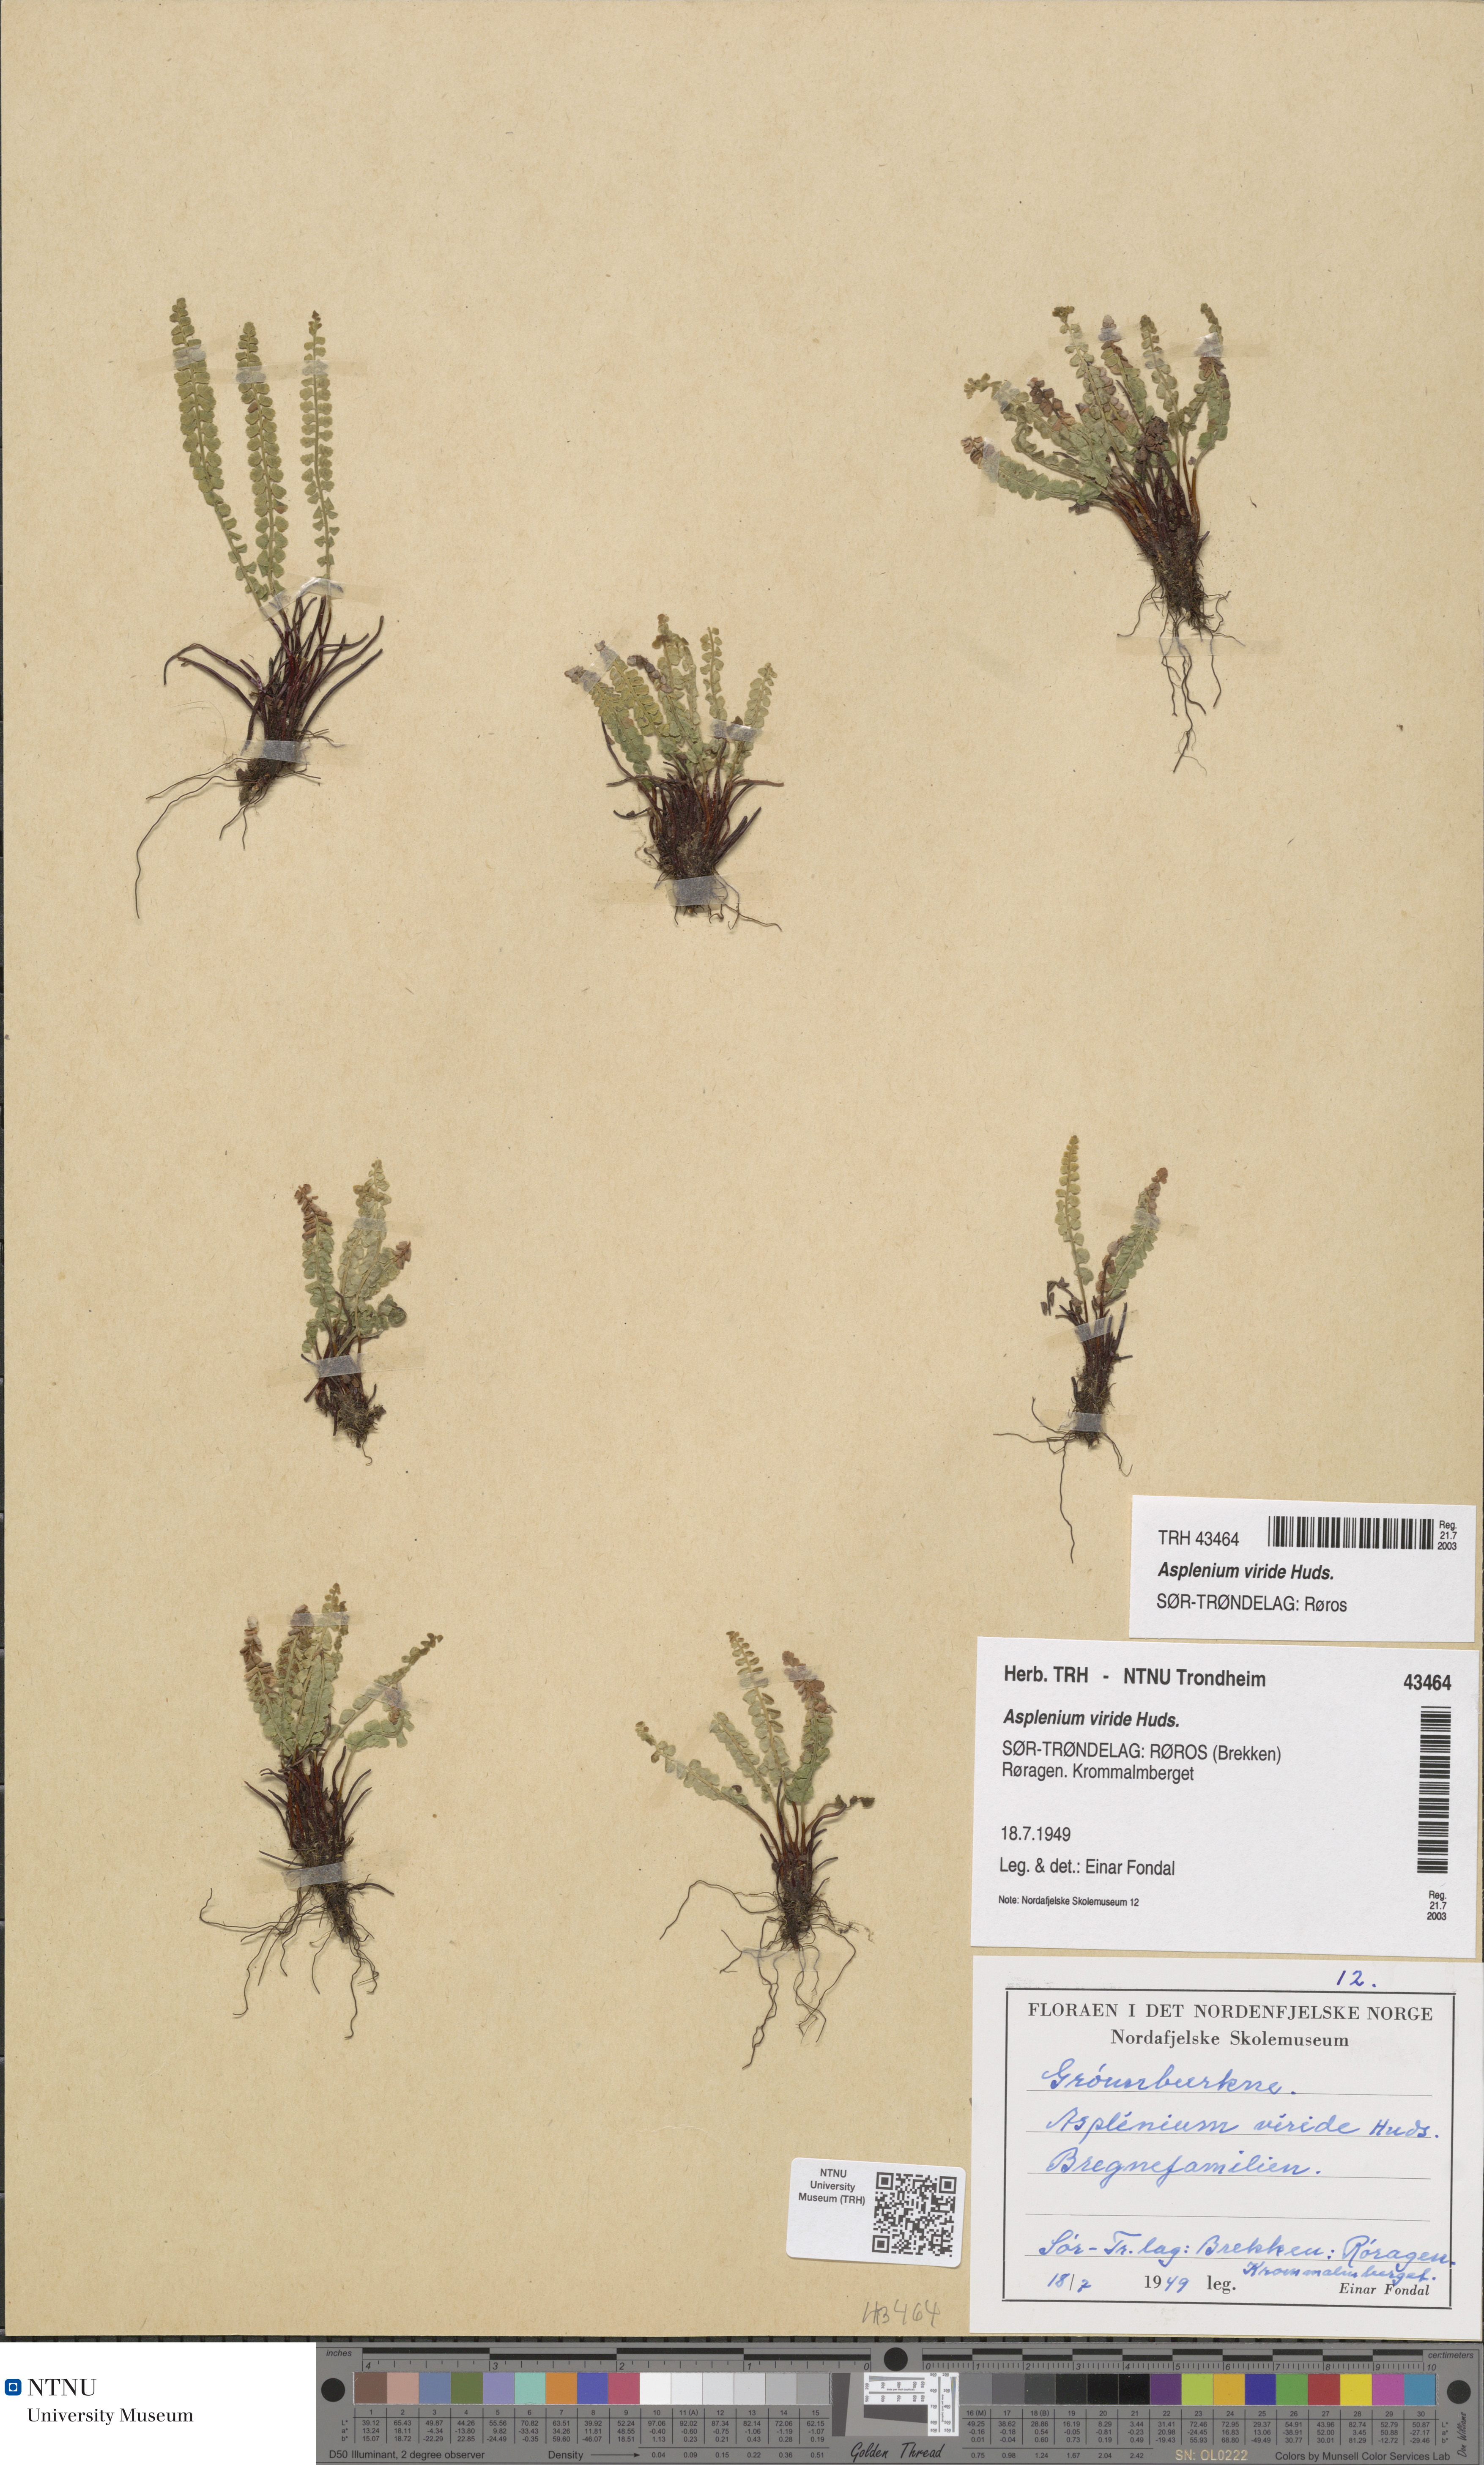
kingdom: Plantae
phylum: Tracheophyta
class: Polypodiopsida
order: Polypodiales
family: Aspleniaceae
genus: Asplenium
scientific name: Asplenium viride
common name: Green spleenwort
